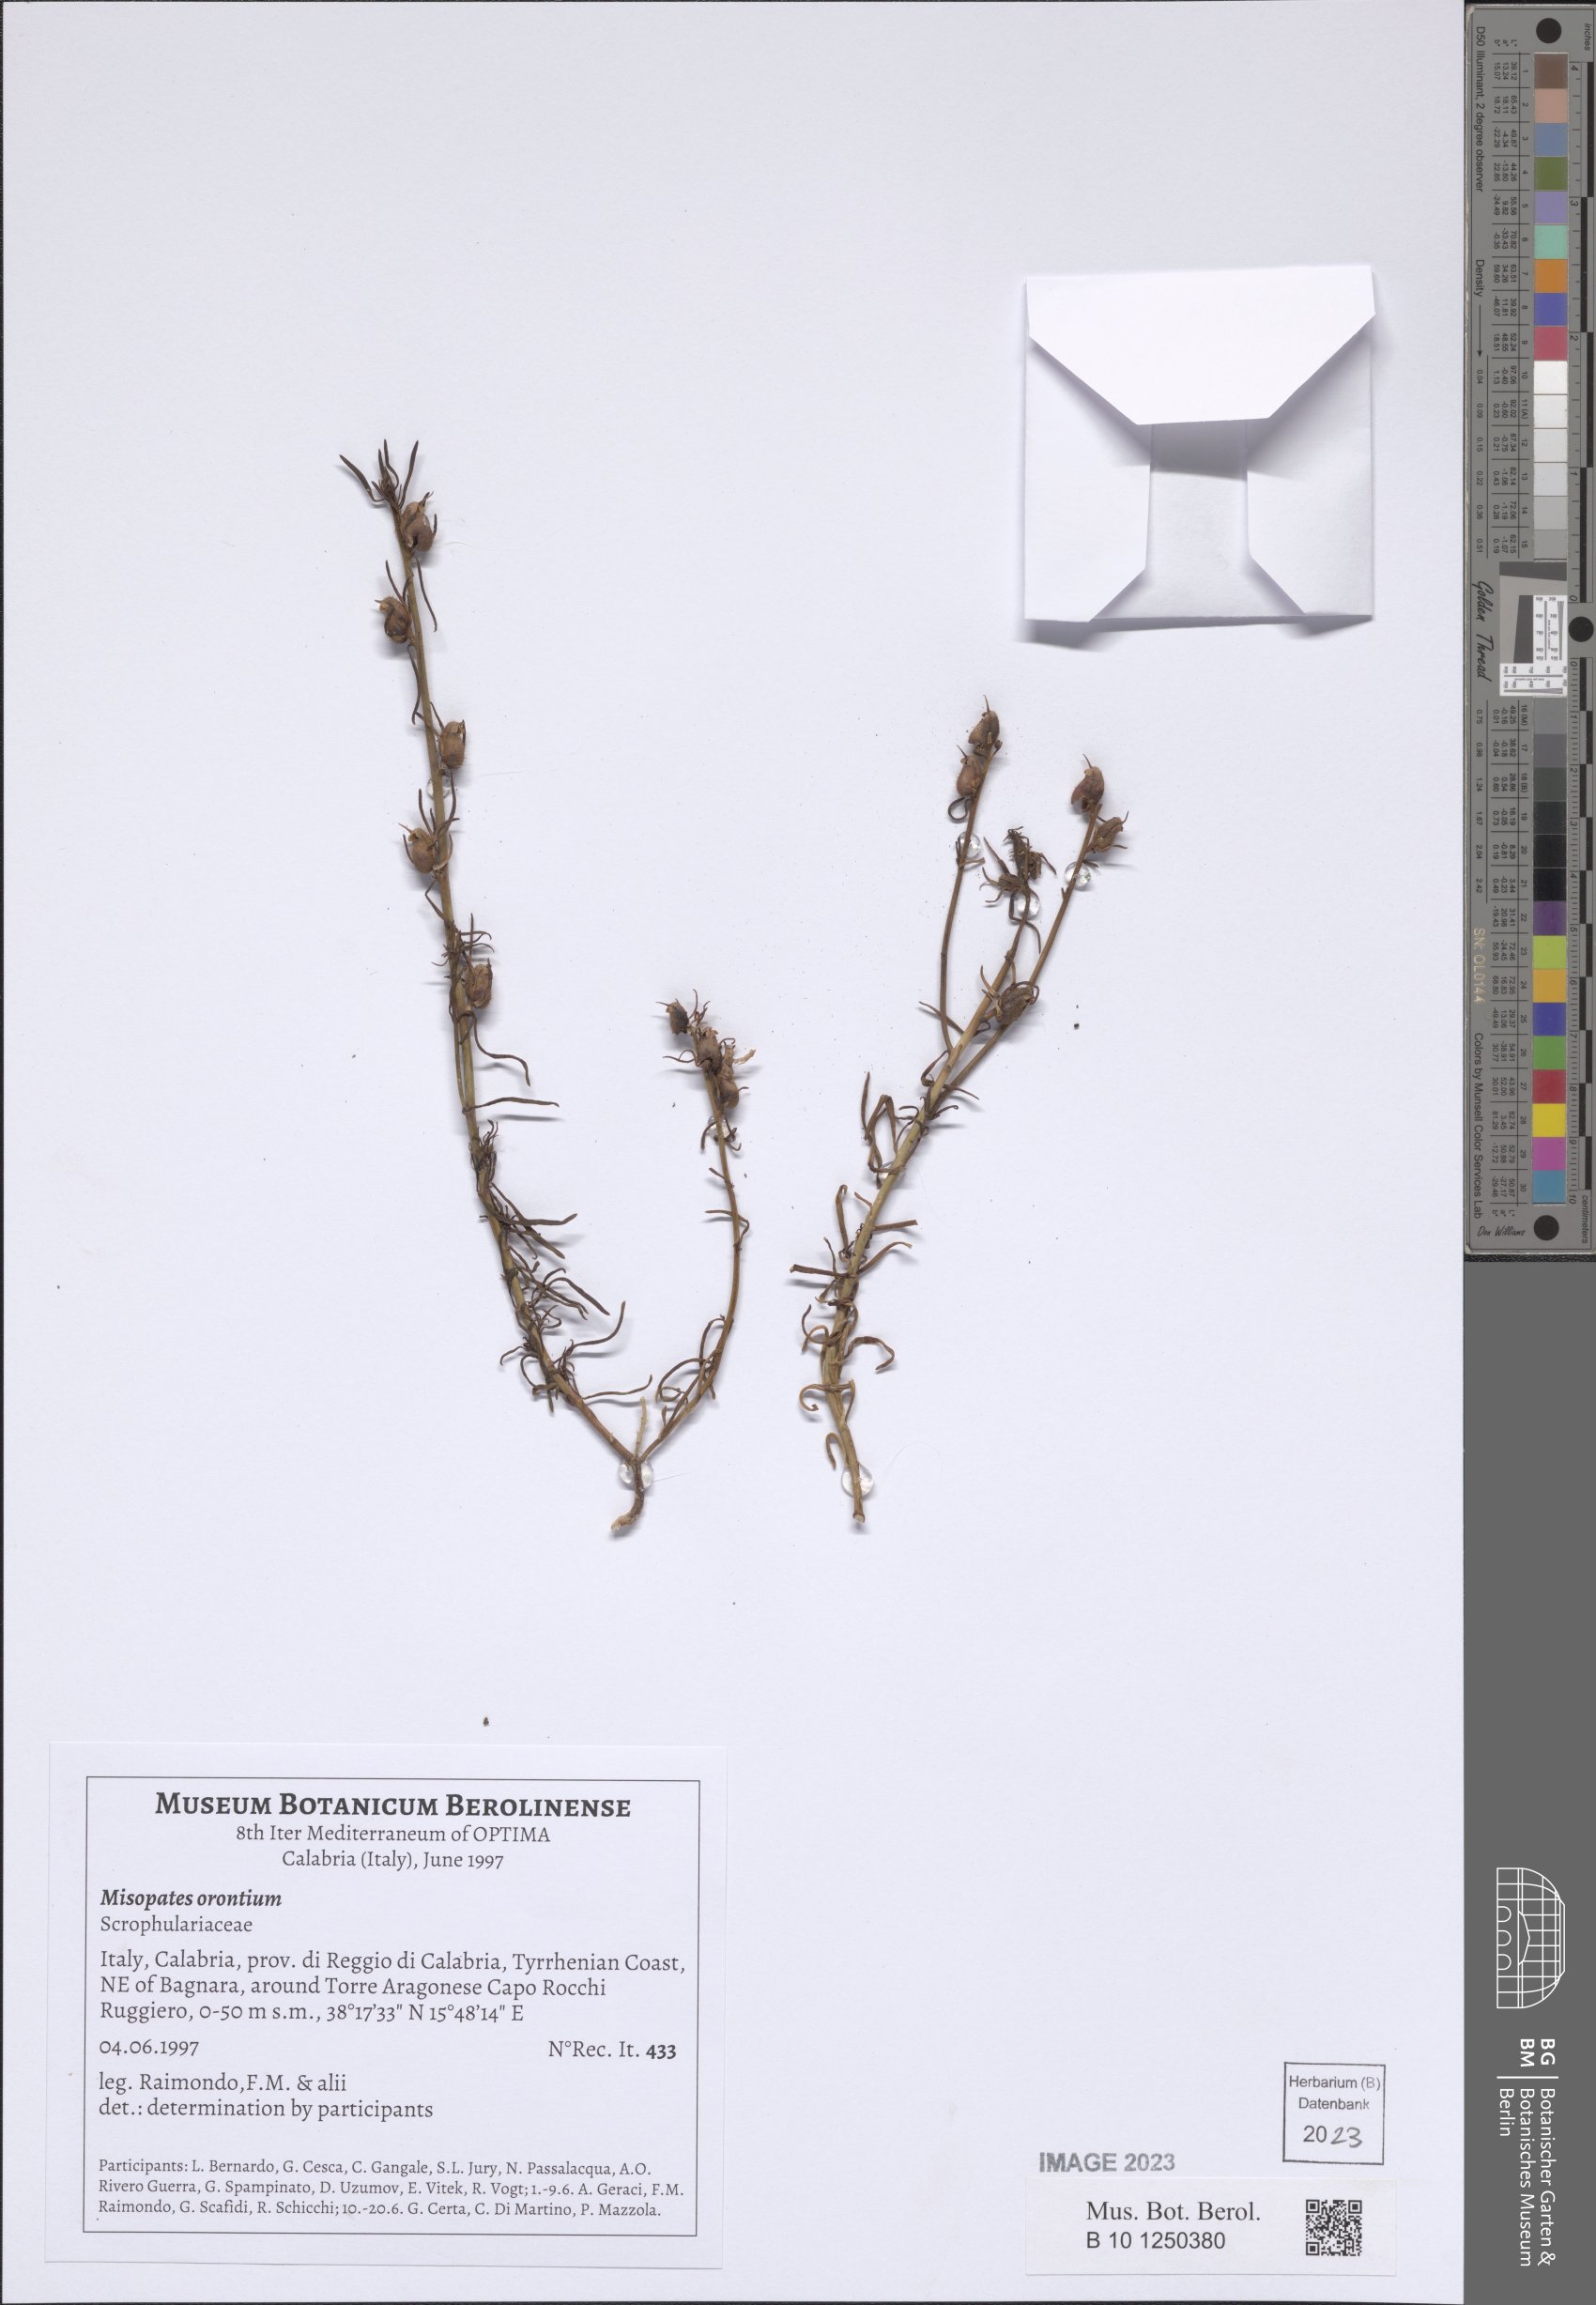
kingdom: Plantae
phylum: Tracheophyta
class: Magnoliopsida
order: Lamiales
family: Plantaginaceae
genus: Misopates
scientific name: Misopates orontium
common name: Weasel's-snout
